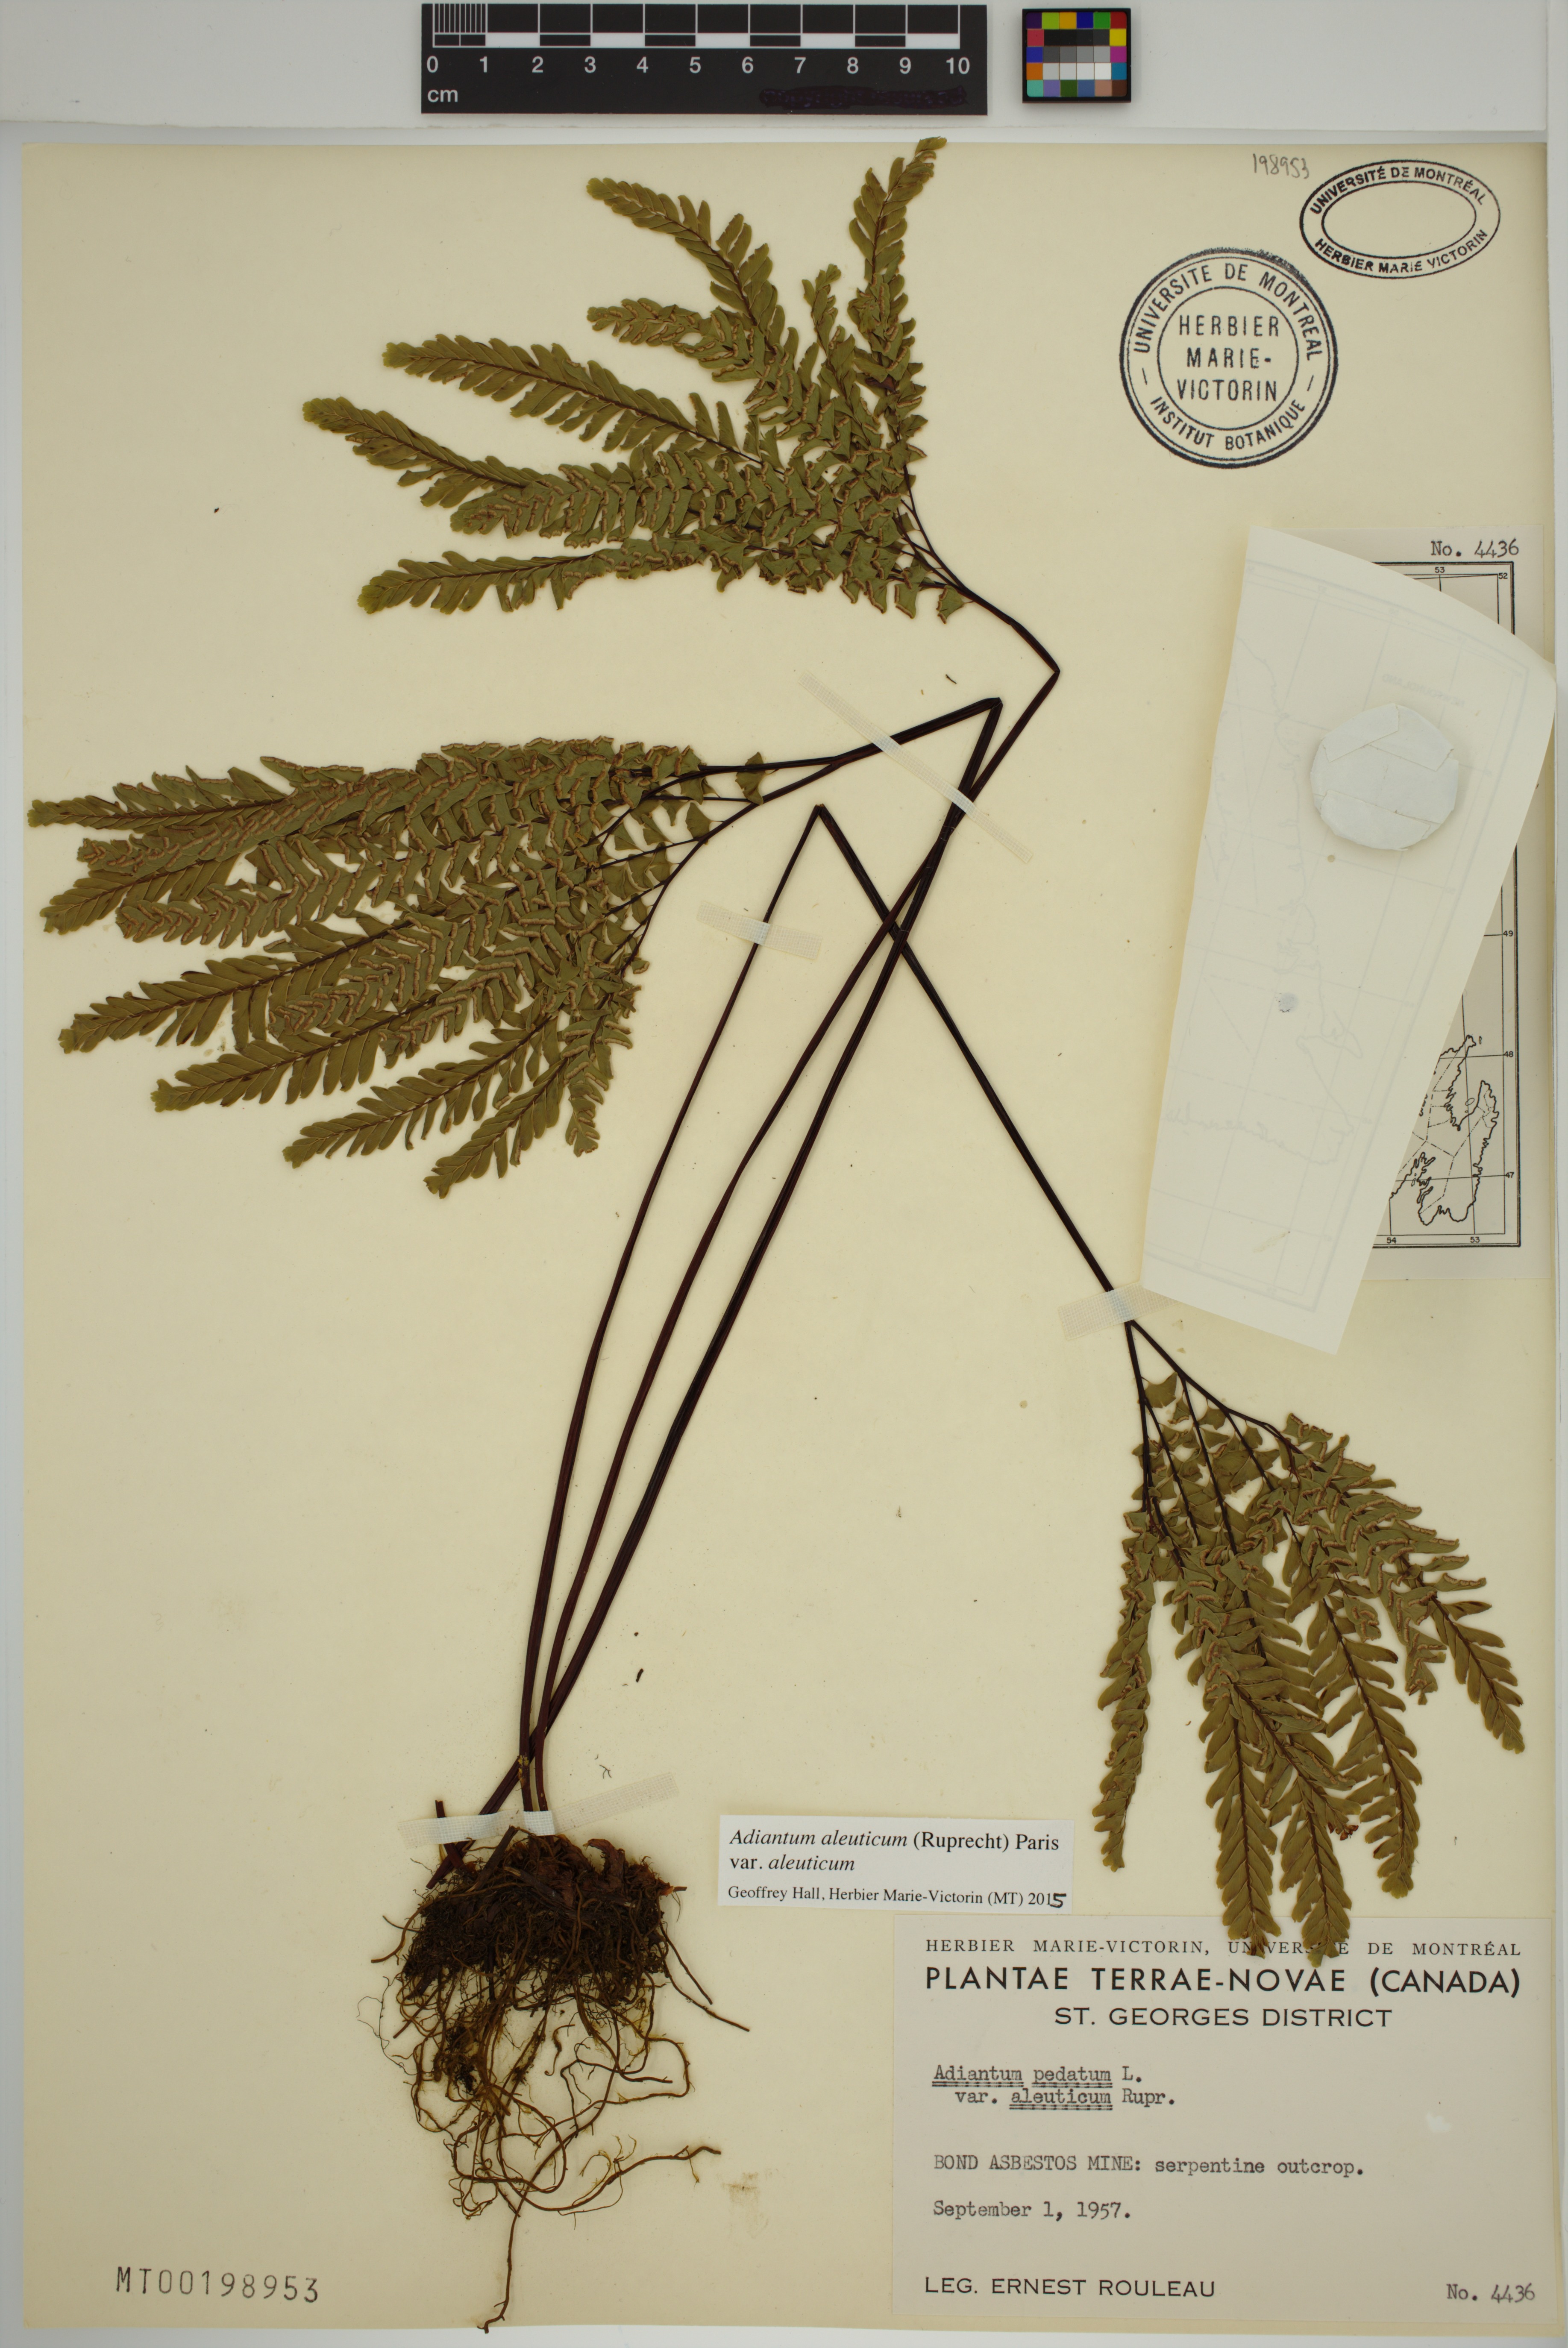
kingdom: Plantae
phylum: Tracheophyta
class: Polypodiopsida
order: Polypodiales
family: Pteridaceae
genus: Adiantum
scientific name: Adiantum aleuticum
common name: Aleutian maidenhair fern
